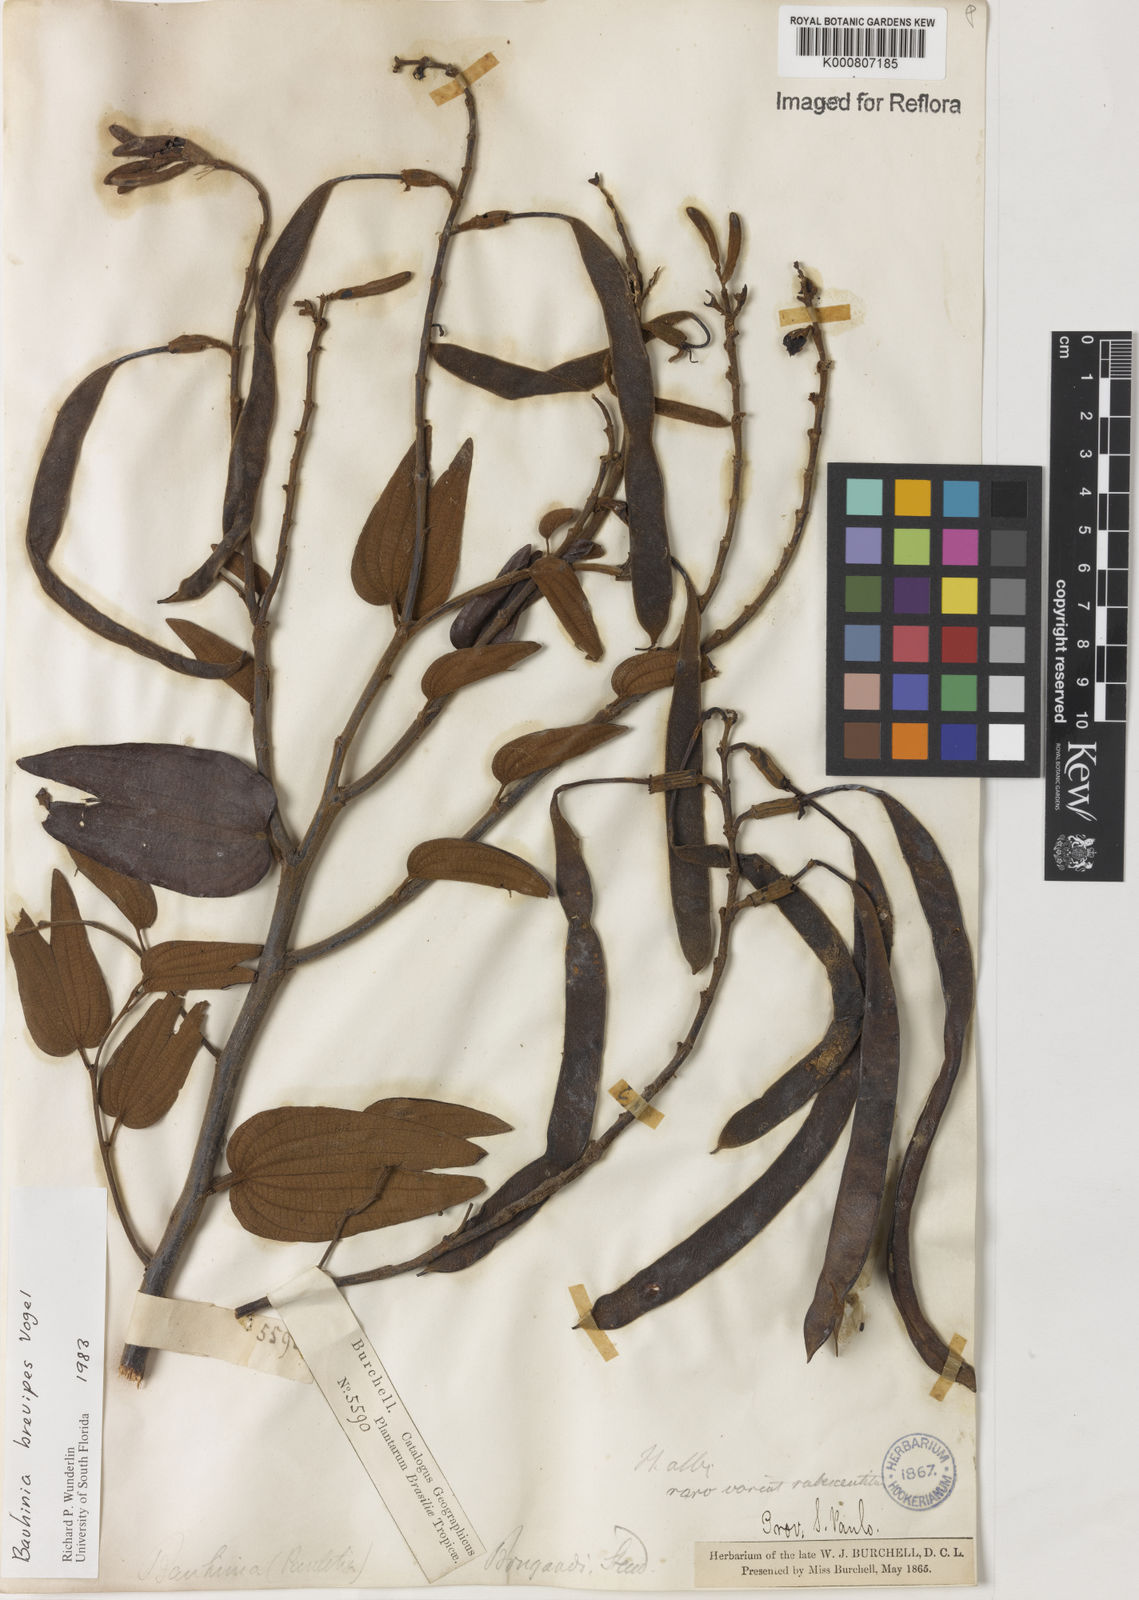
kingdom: Plantae
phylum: Tracheophyta
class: Magnoliopsida
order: Fabales
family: Fabaceae
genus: Bauhinia
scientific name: Bauhinia brevipes
